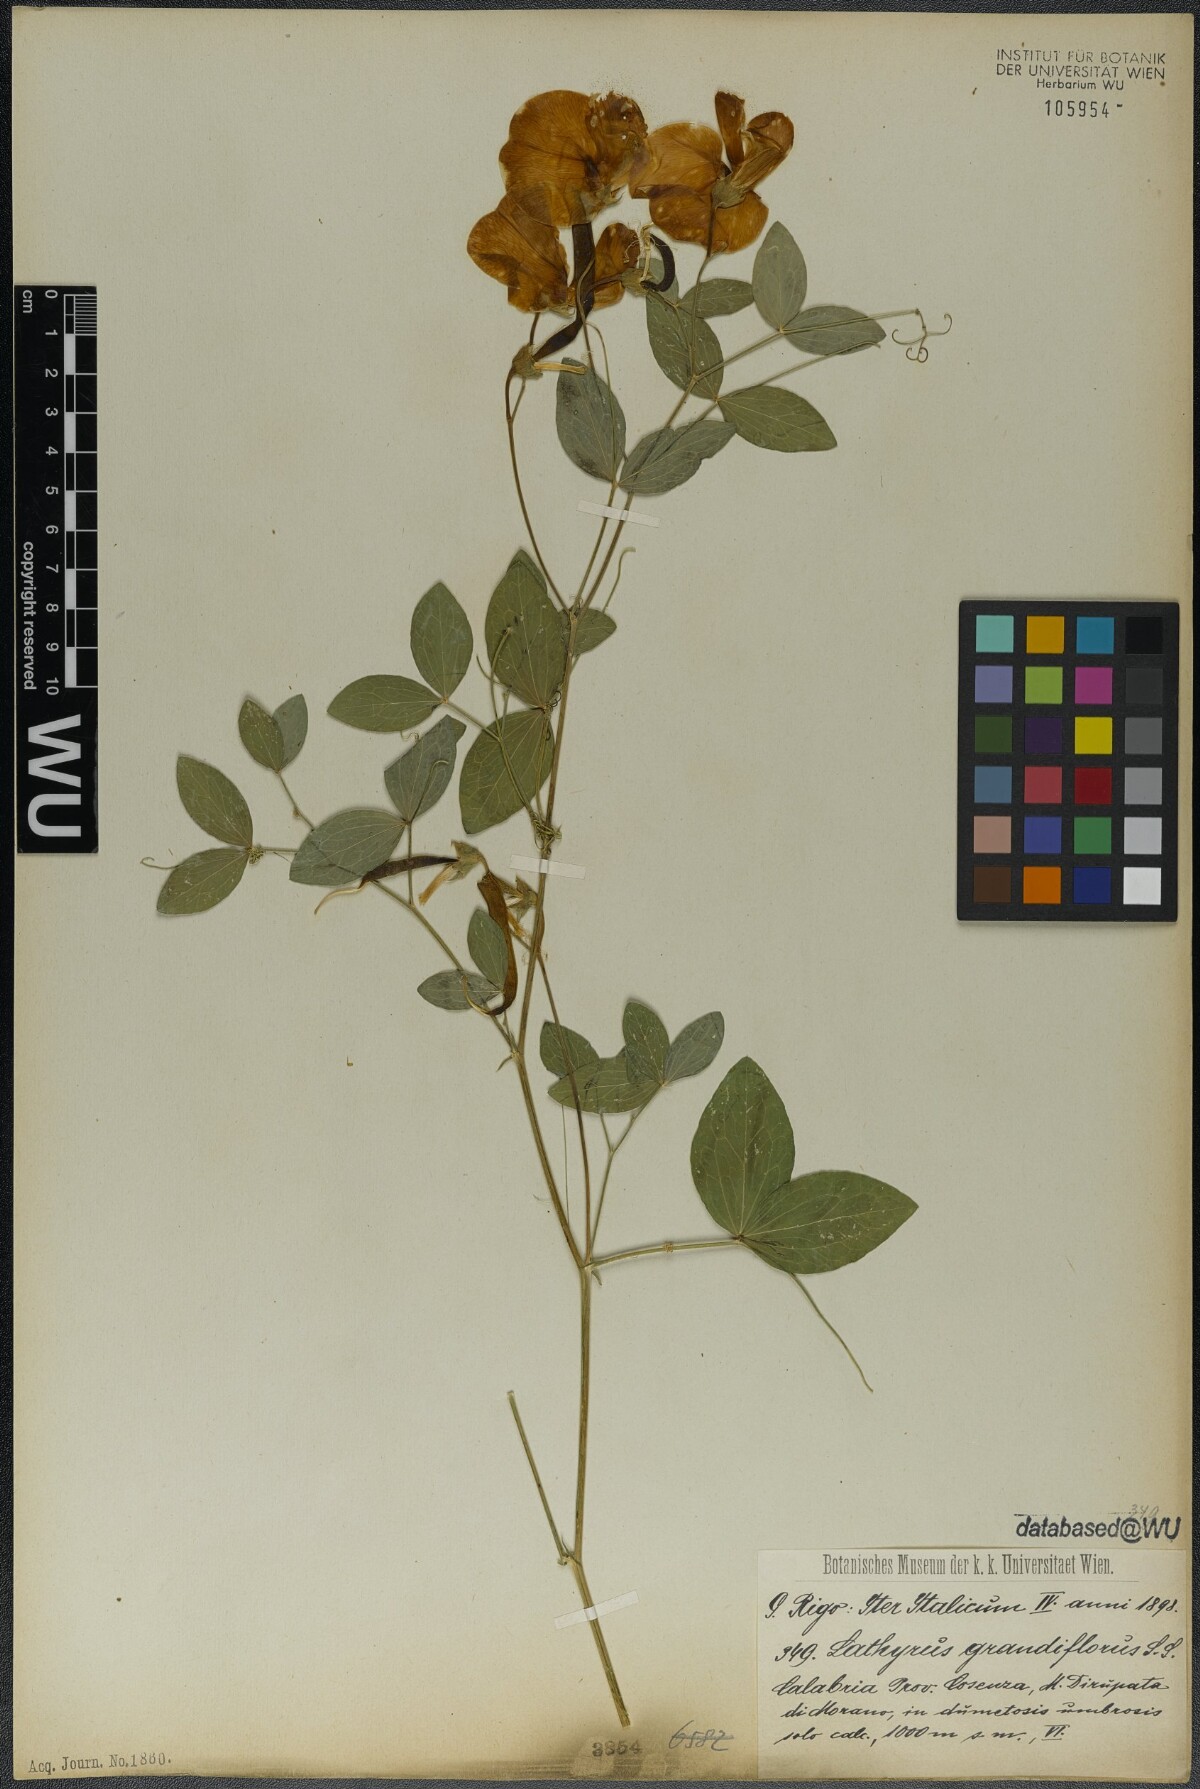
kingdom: Plantae
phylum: Tracheophyta
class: Magnoliopsida
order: Fabales
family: Fabaceae
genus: Lathyrus
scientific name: Lathyrus grandiflorus
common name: Two-flowered everlasting-pea
